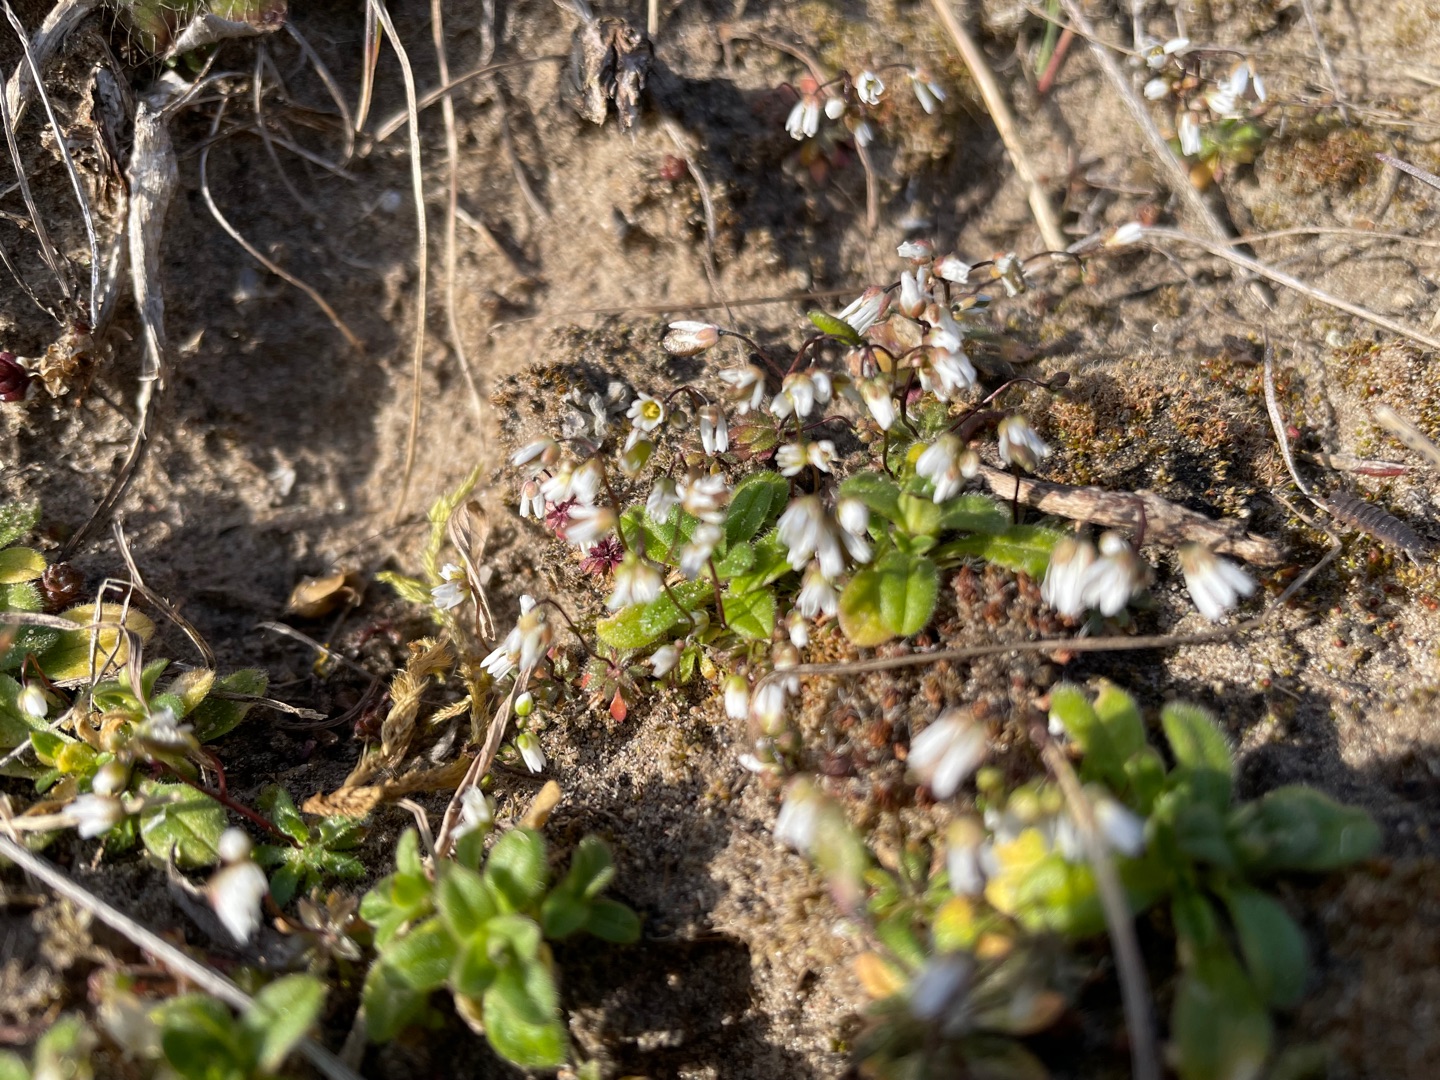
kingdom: Plantae
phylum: Tracheophyta
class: Magnoliopsida
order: Brassicales
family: Brassicaceae
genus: Draba
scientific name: Draba verna
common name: Vår-gæslingeblomst
